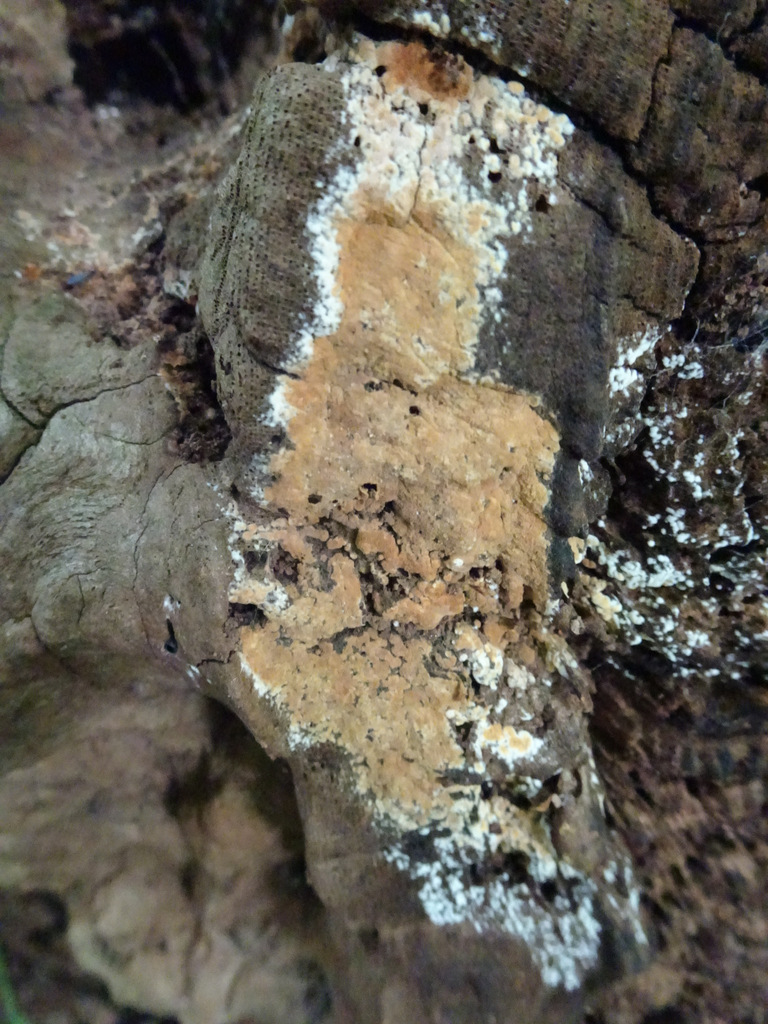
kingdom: Fungi
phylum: Basidiomycota
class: Agaricomycetes
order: Corticiales
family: Corticiaceae
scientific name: Corticiaceae
